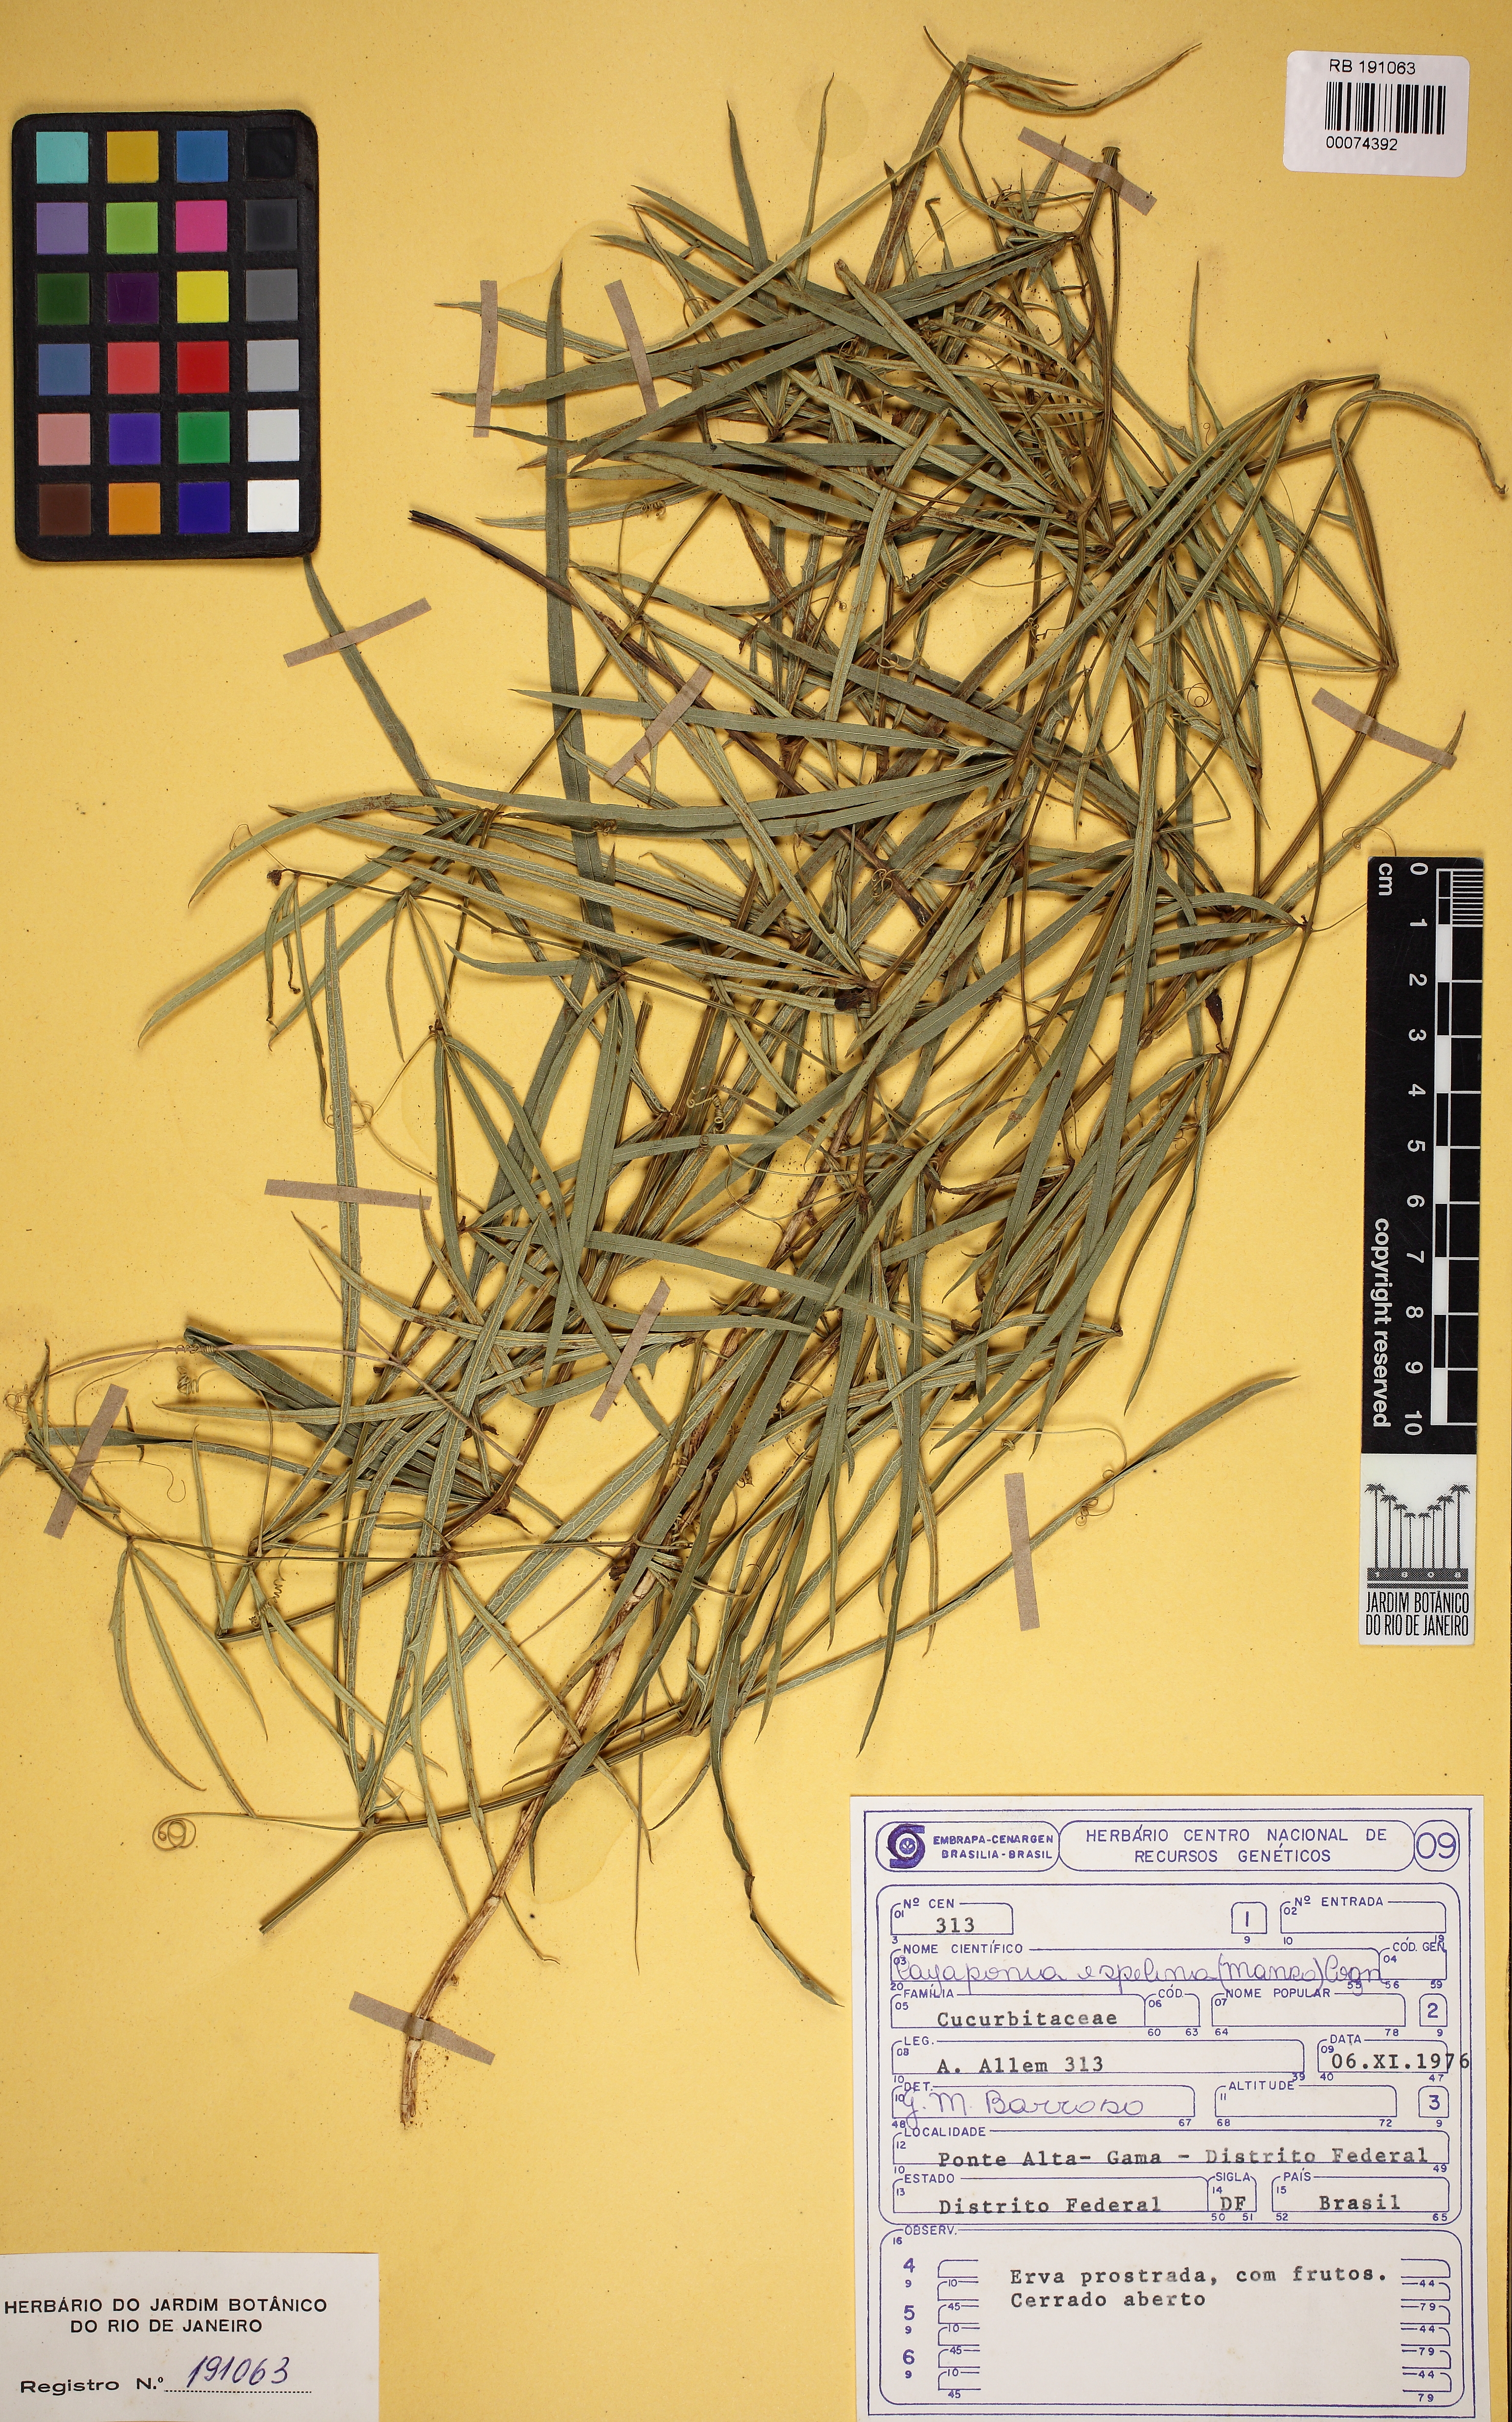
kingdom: Plantae
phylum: Tracheophyta
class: Magnoliopsida
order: Cucurbitales
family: Cucurbitaceae
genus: Cayaponia
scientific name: Cayaponia espelina
